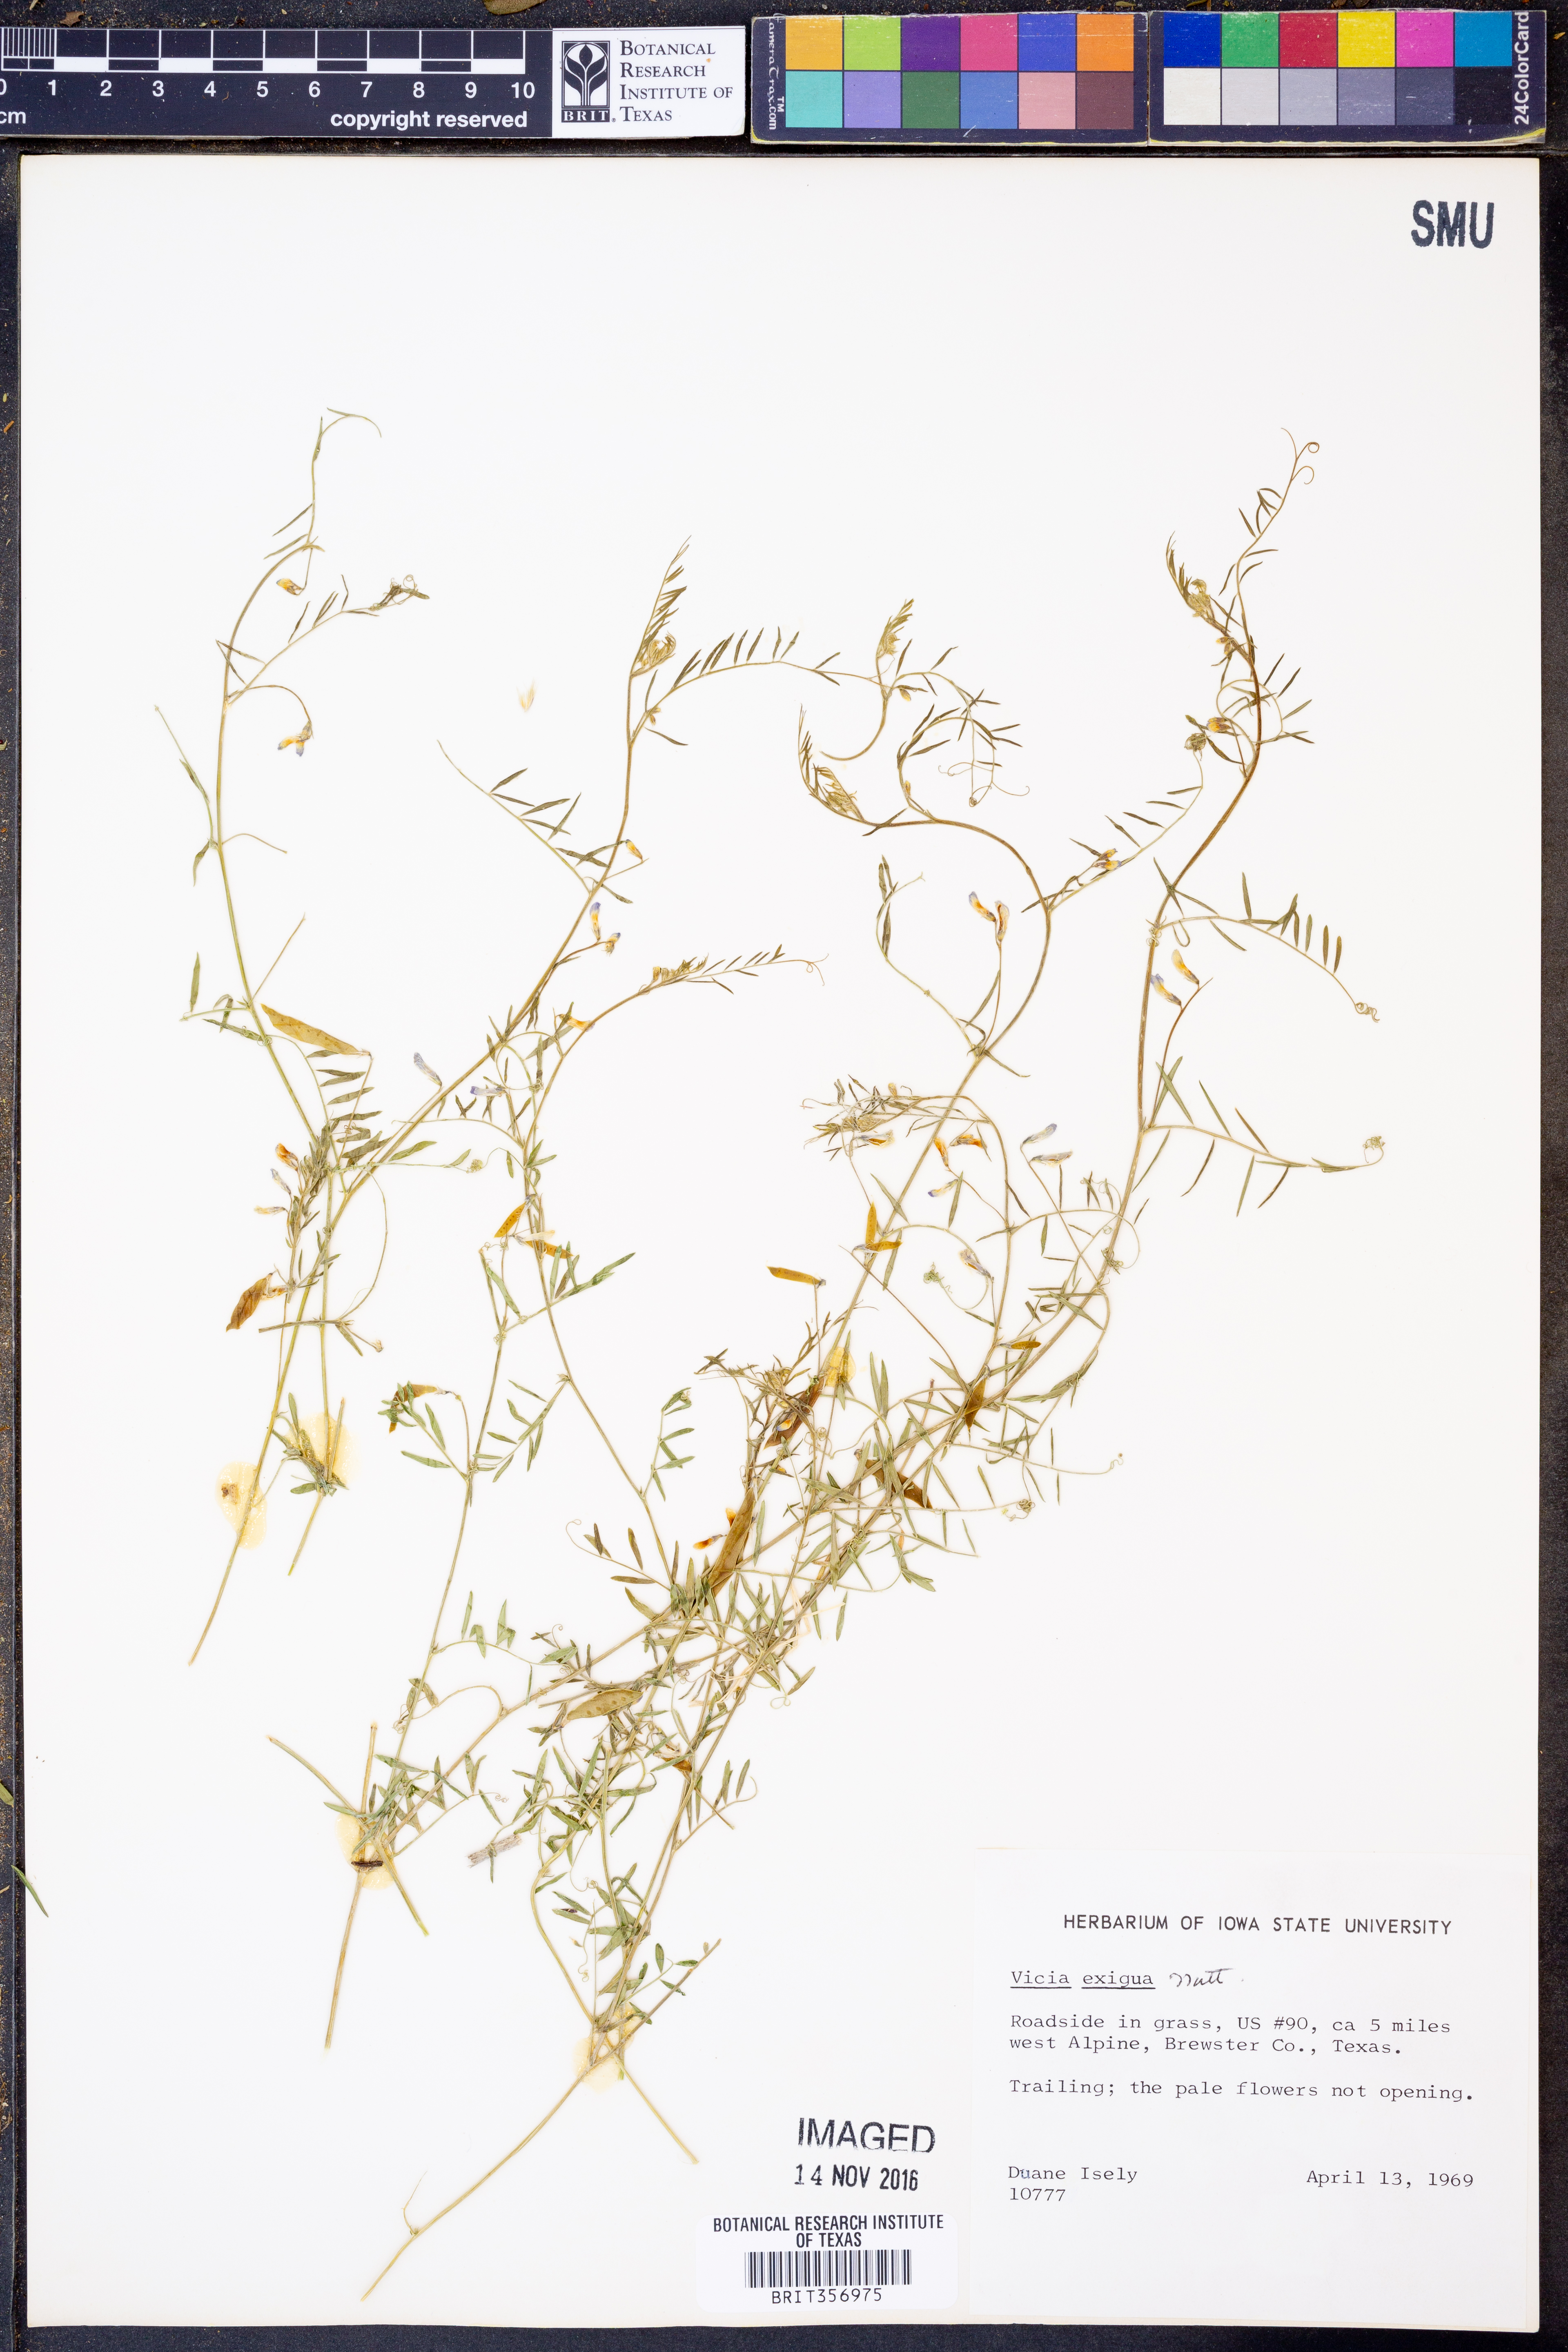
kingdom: Plantae
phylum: Tracheophyta
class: Magnoliopsida
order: Fabales
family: Fabaceae
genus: Vicia
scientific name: Vicia ludoviciana
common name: Louisiana vetch
